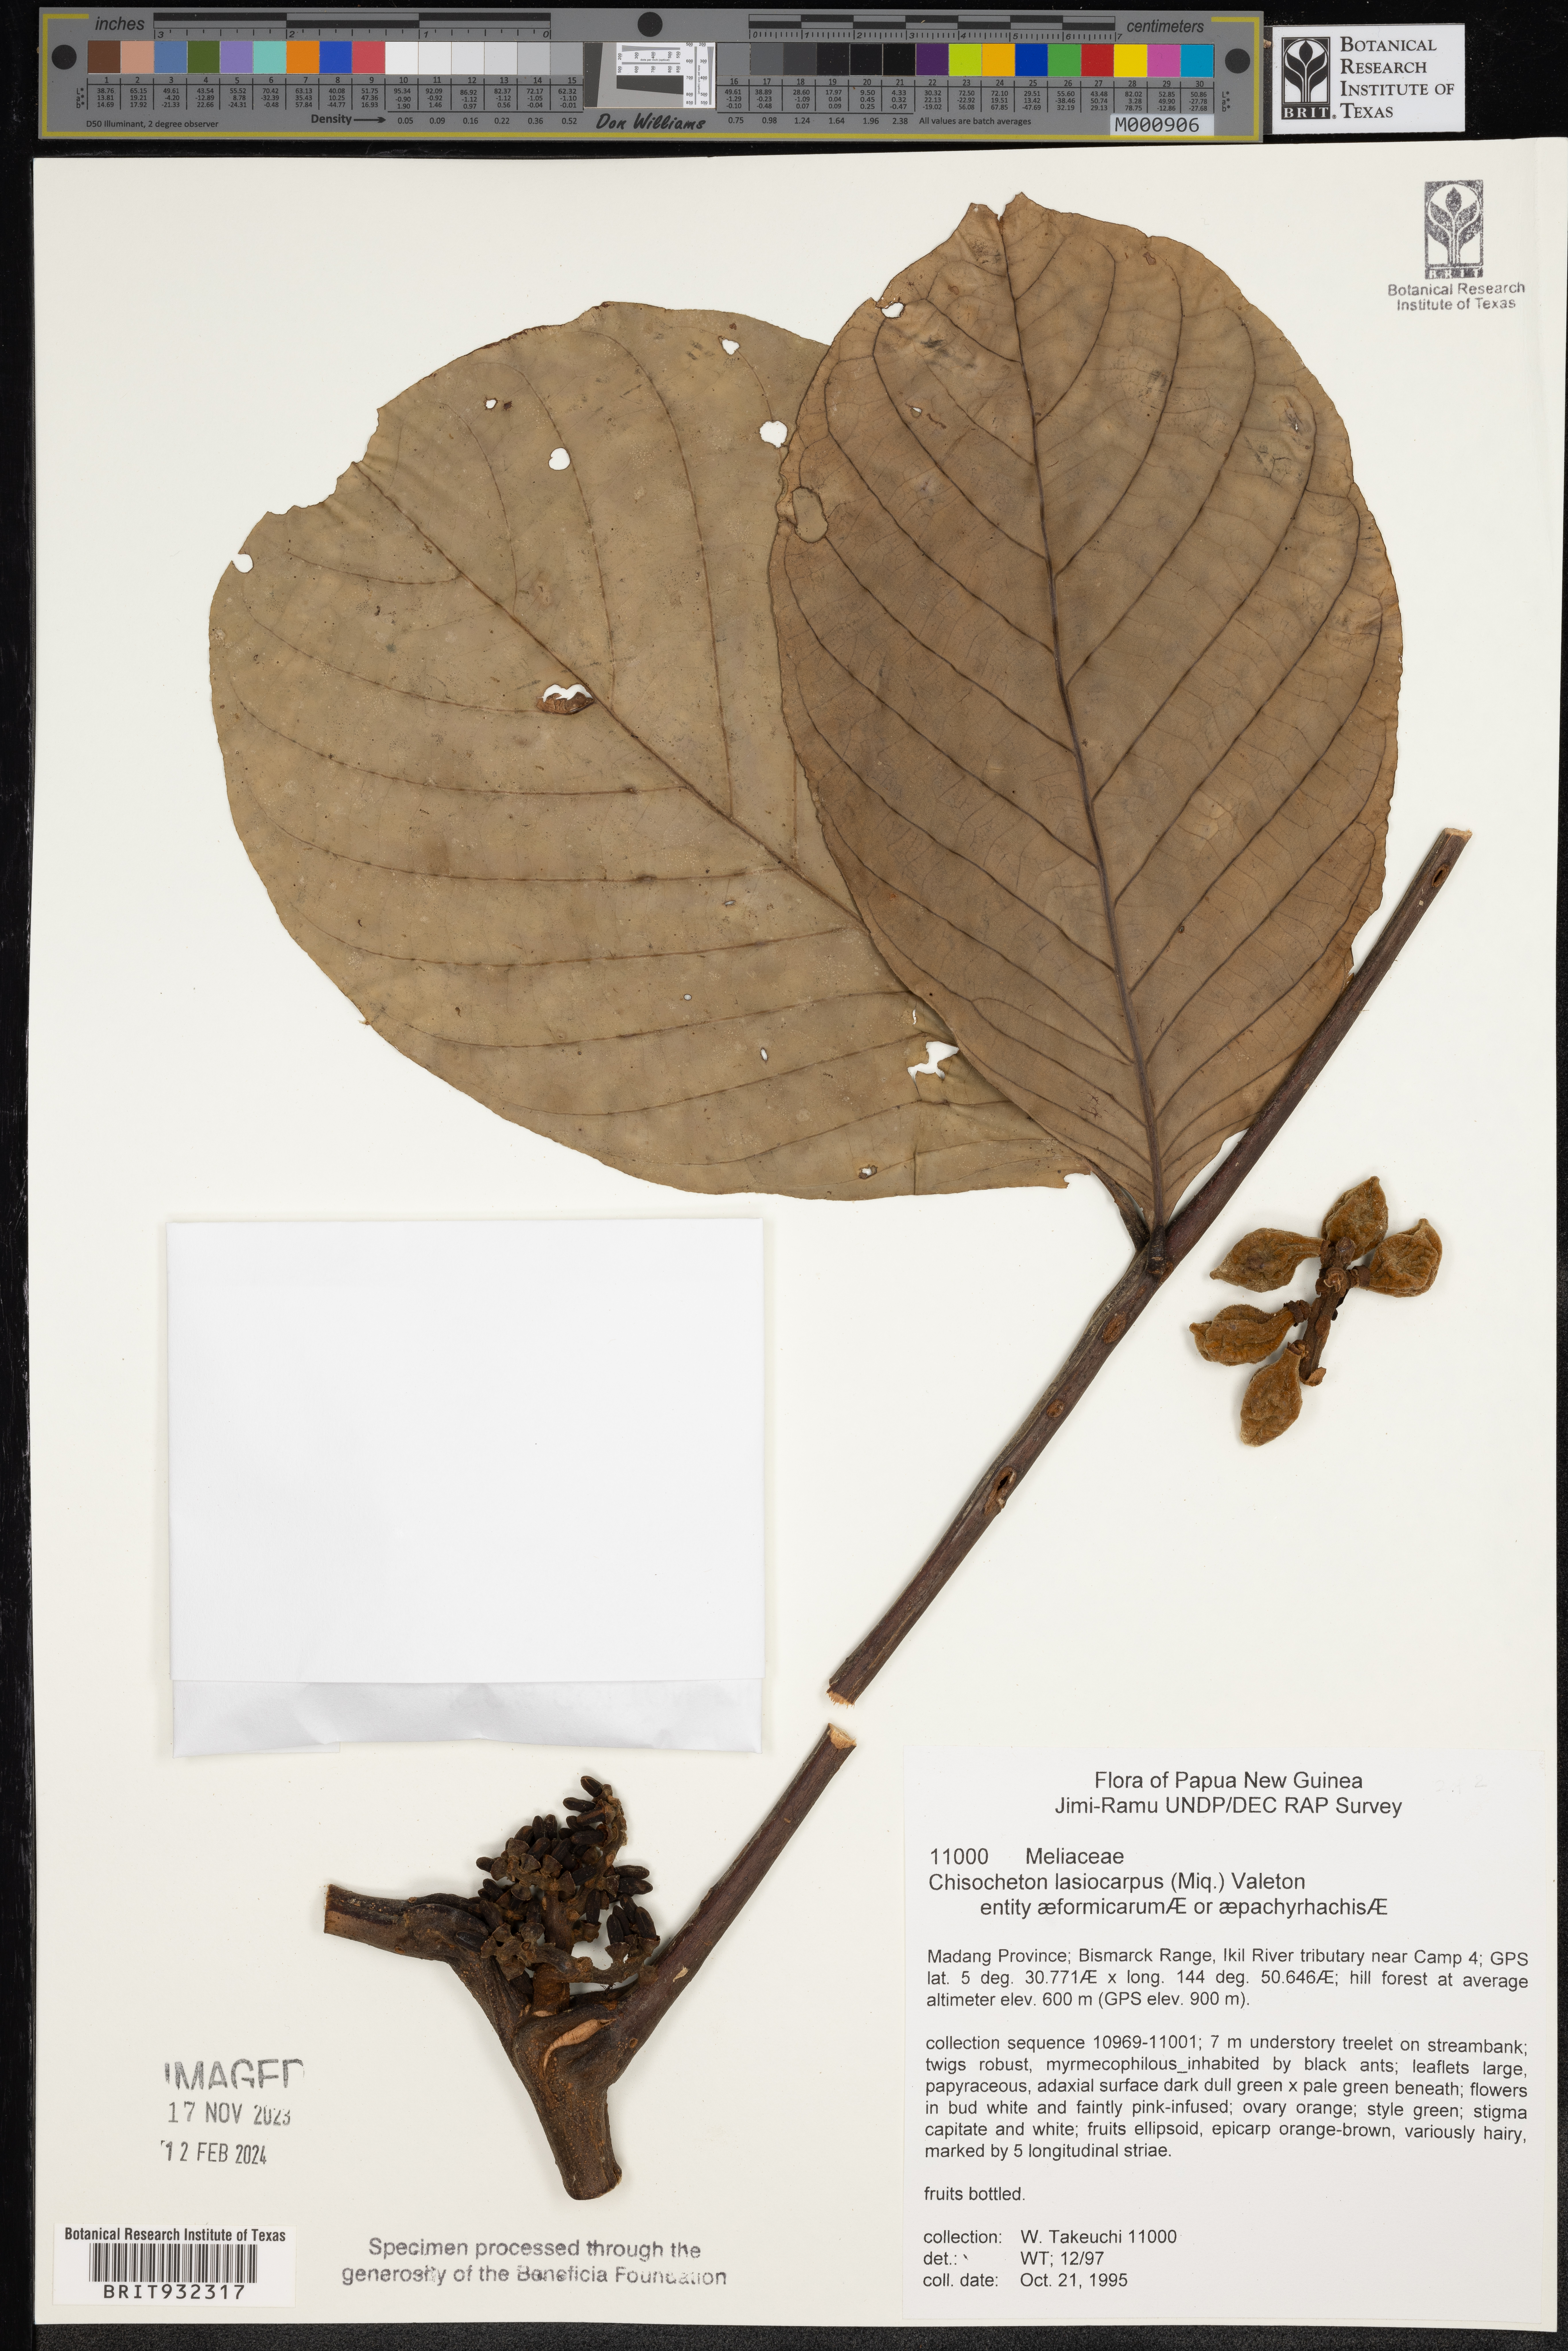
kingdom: Plantae
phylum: Tracheophyta
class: Magnoliopsida
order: Sapindales
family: Meliaceae
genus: Chisocheton
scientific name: Chisocheton
